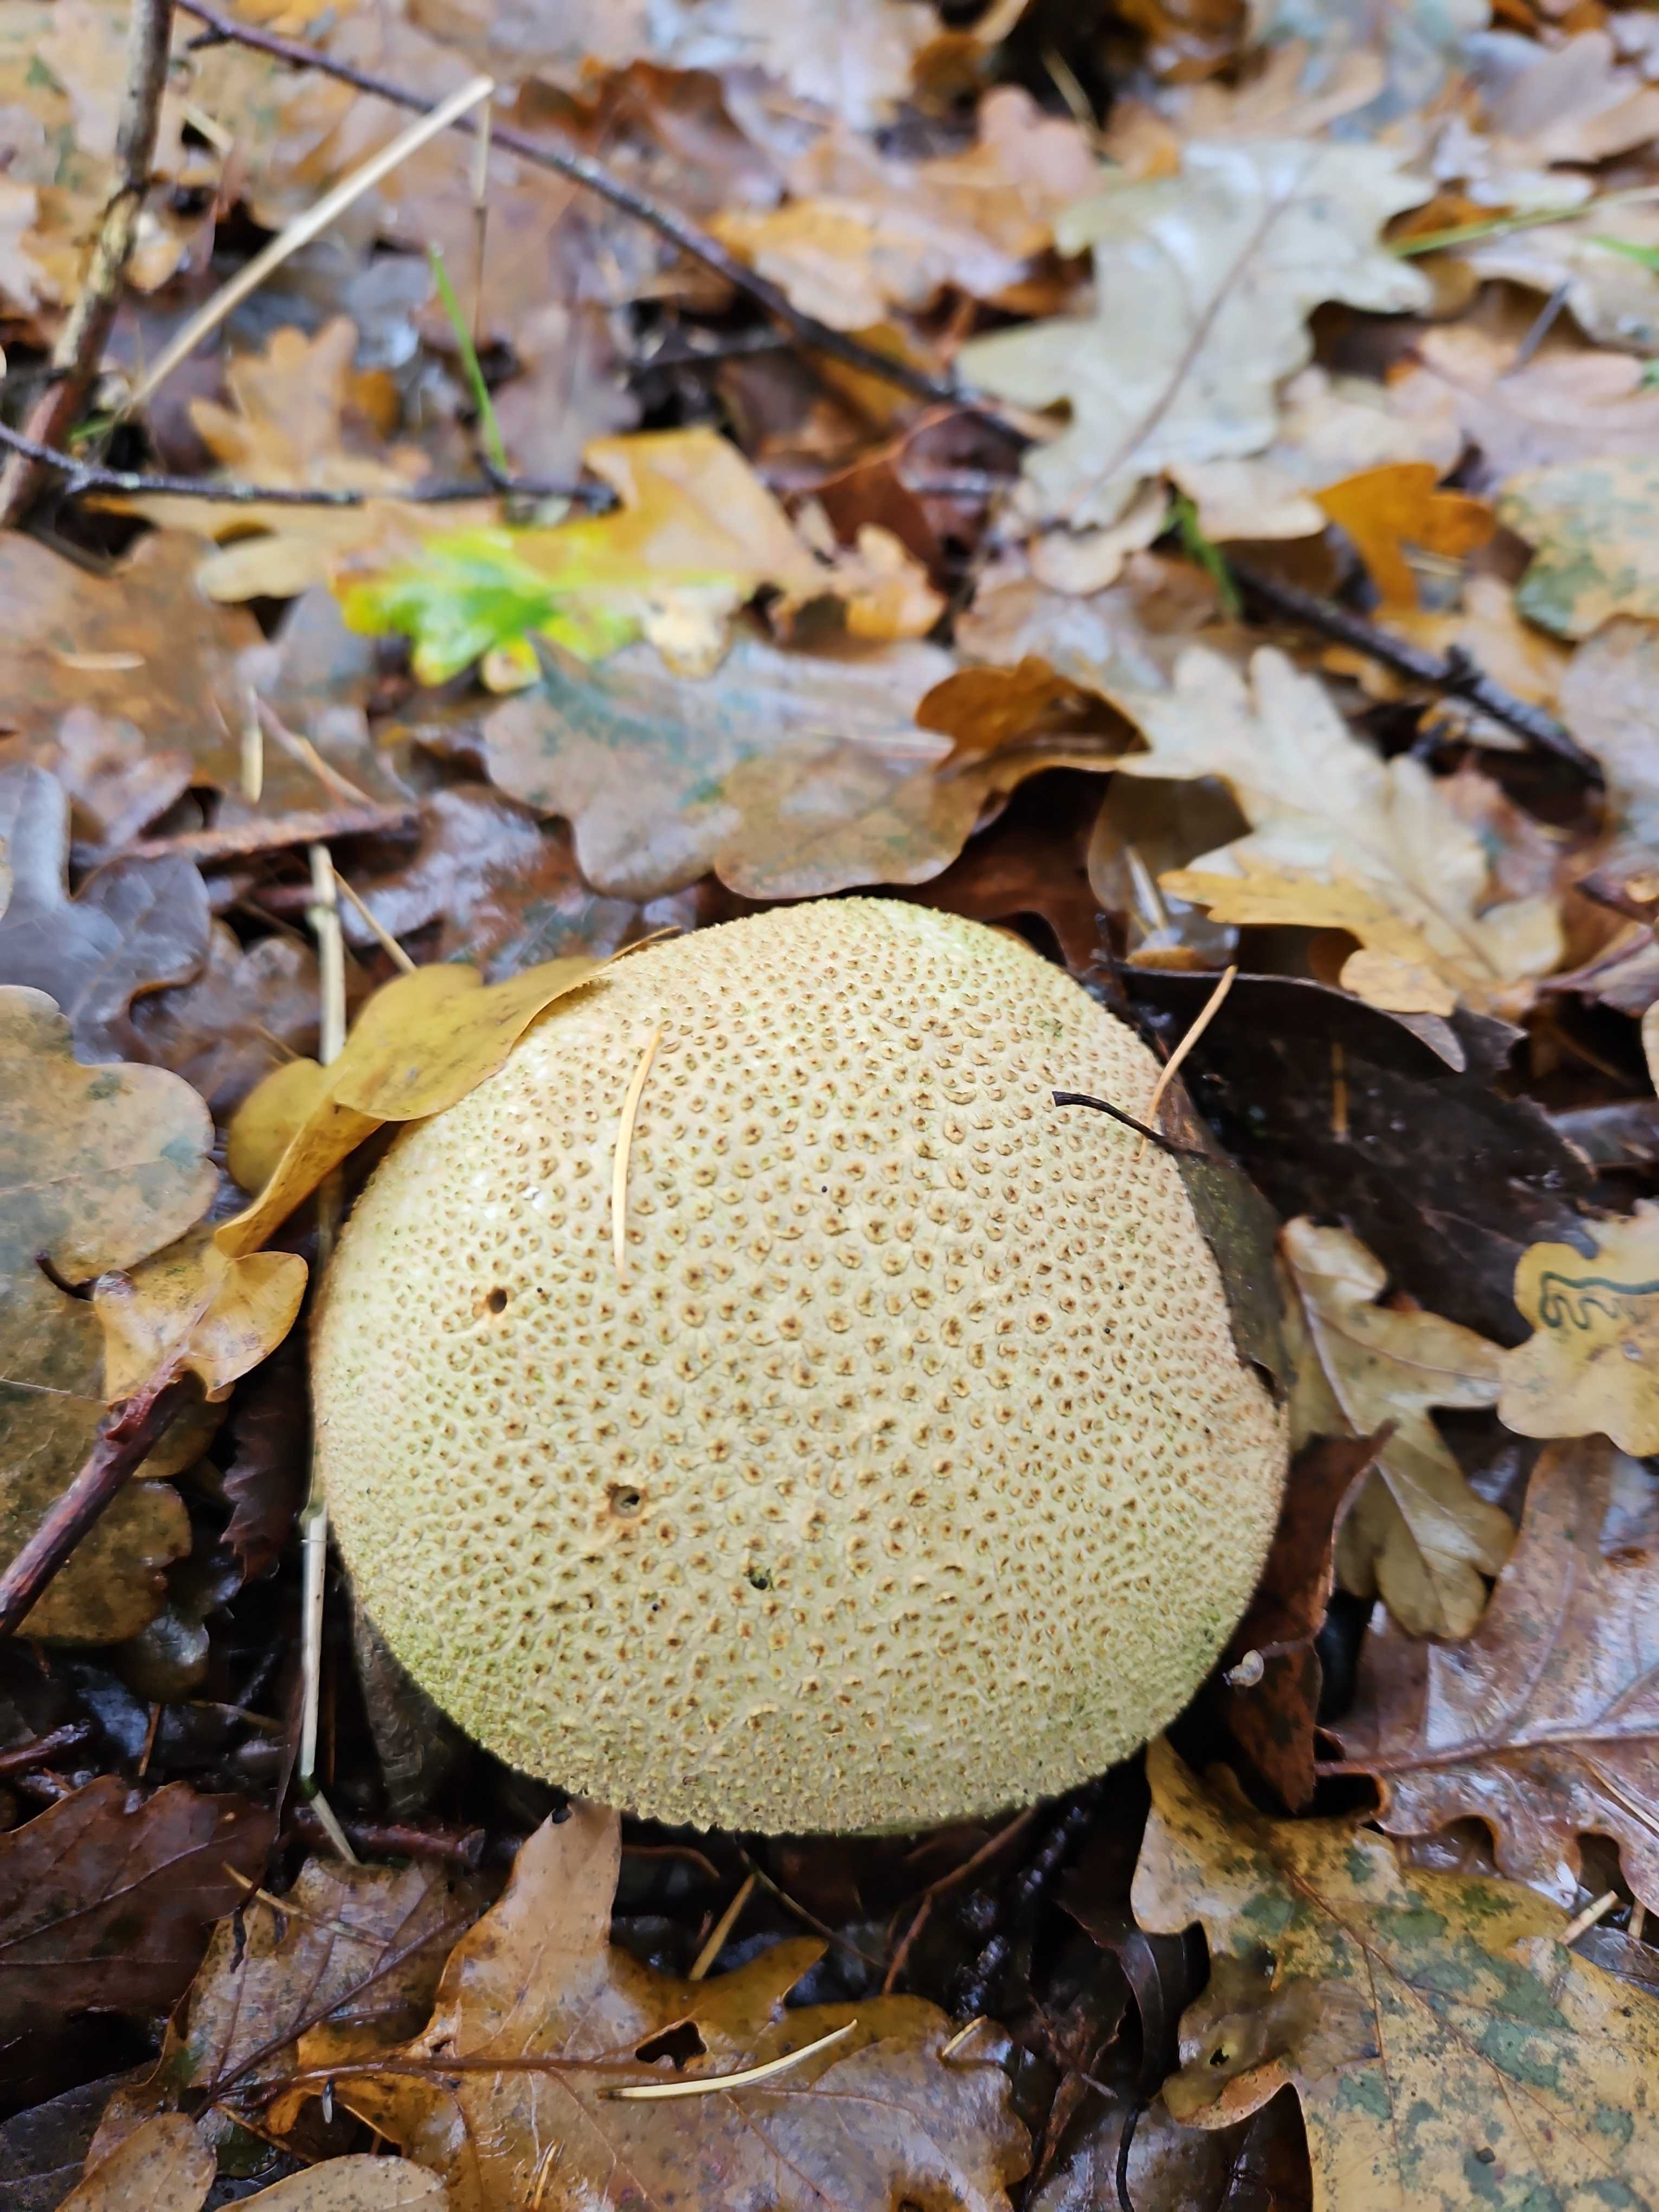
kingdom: Fungi
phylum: Basidiomycota
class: Agaricomycetes
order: Boletales
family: Sclerodermataceae
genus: Scleroderma
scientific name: Scleroderma citrinum
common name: almindelig bruskbold
